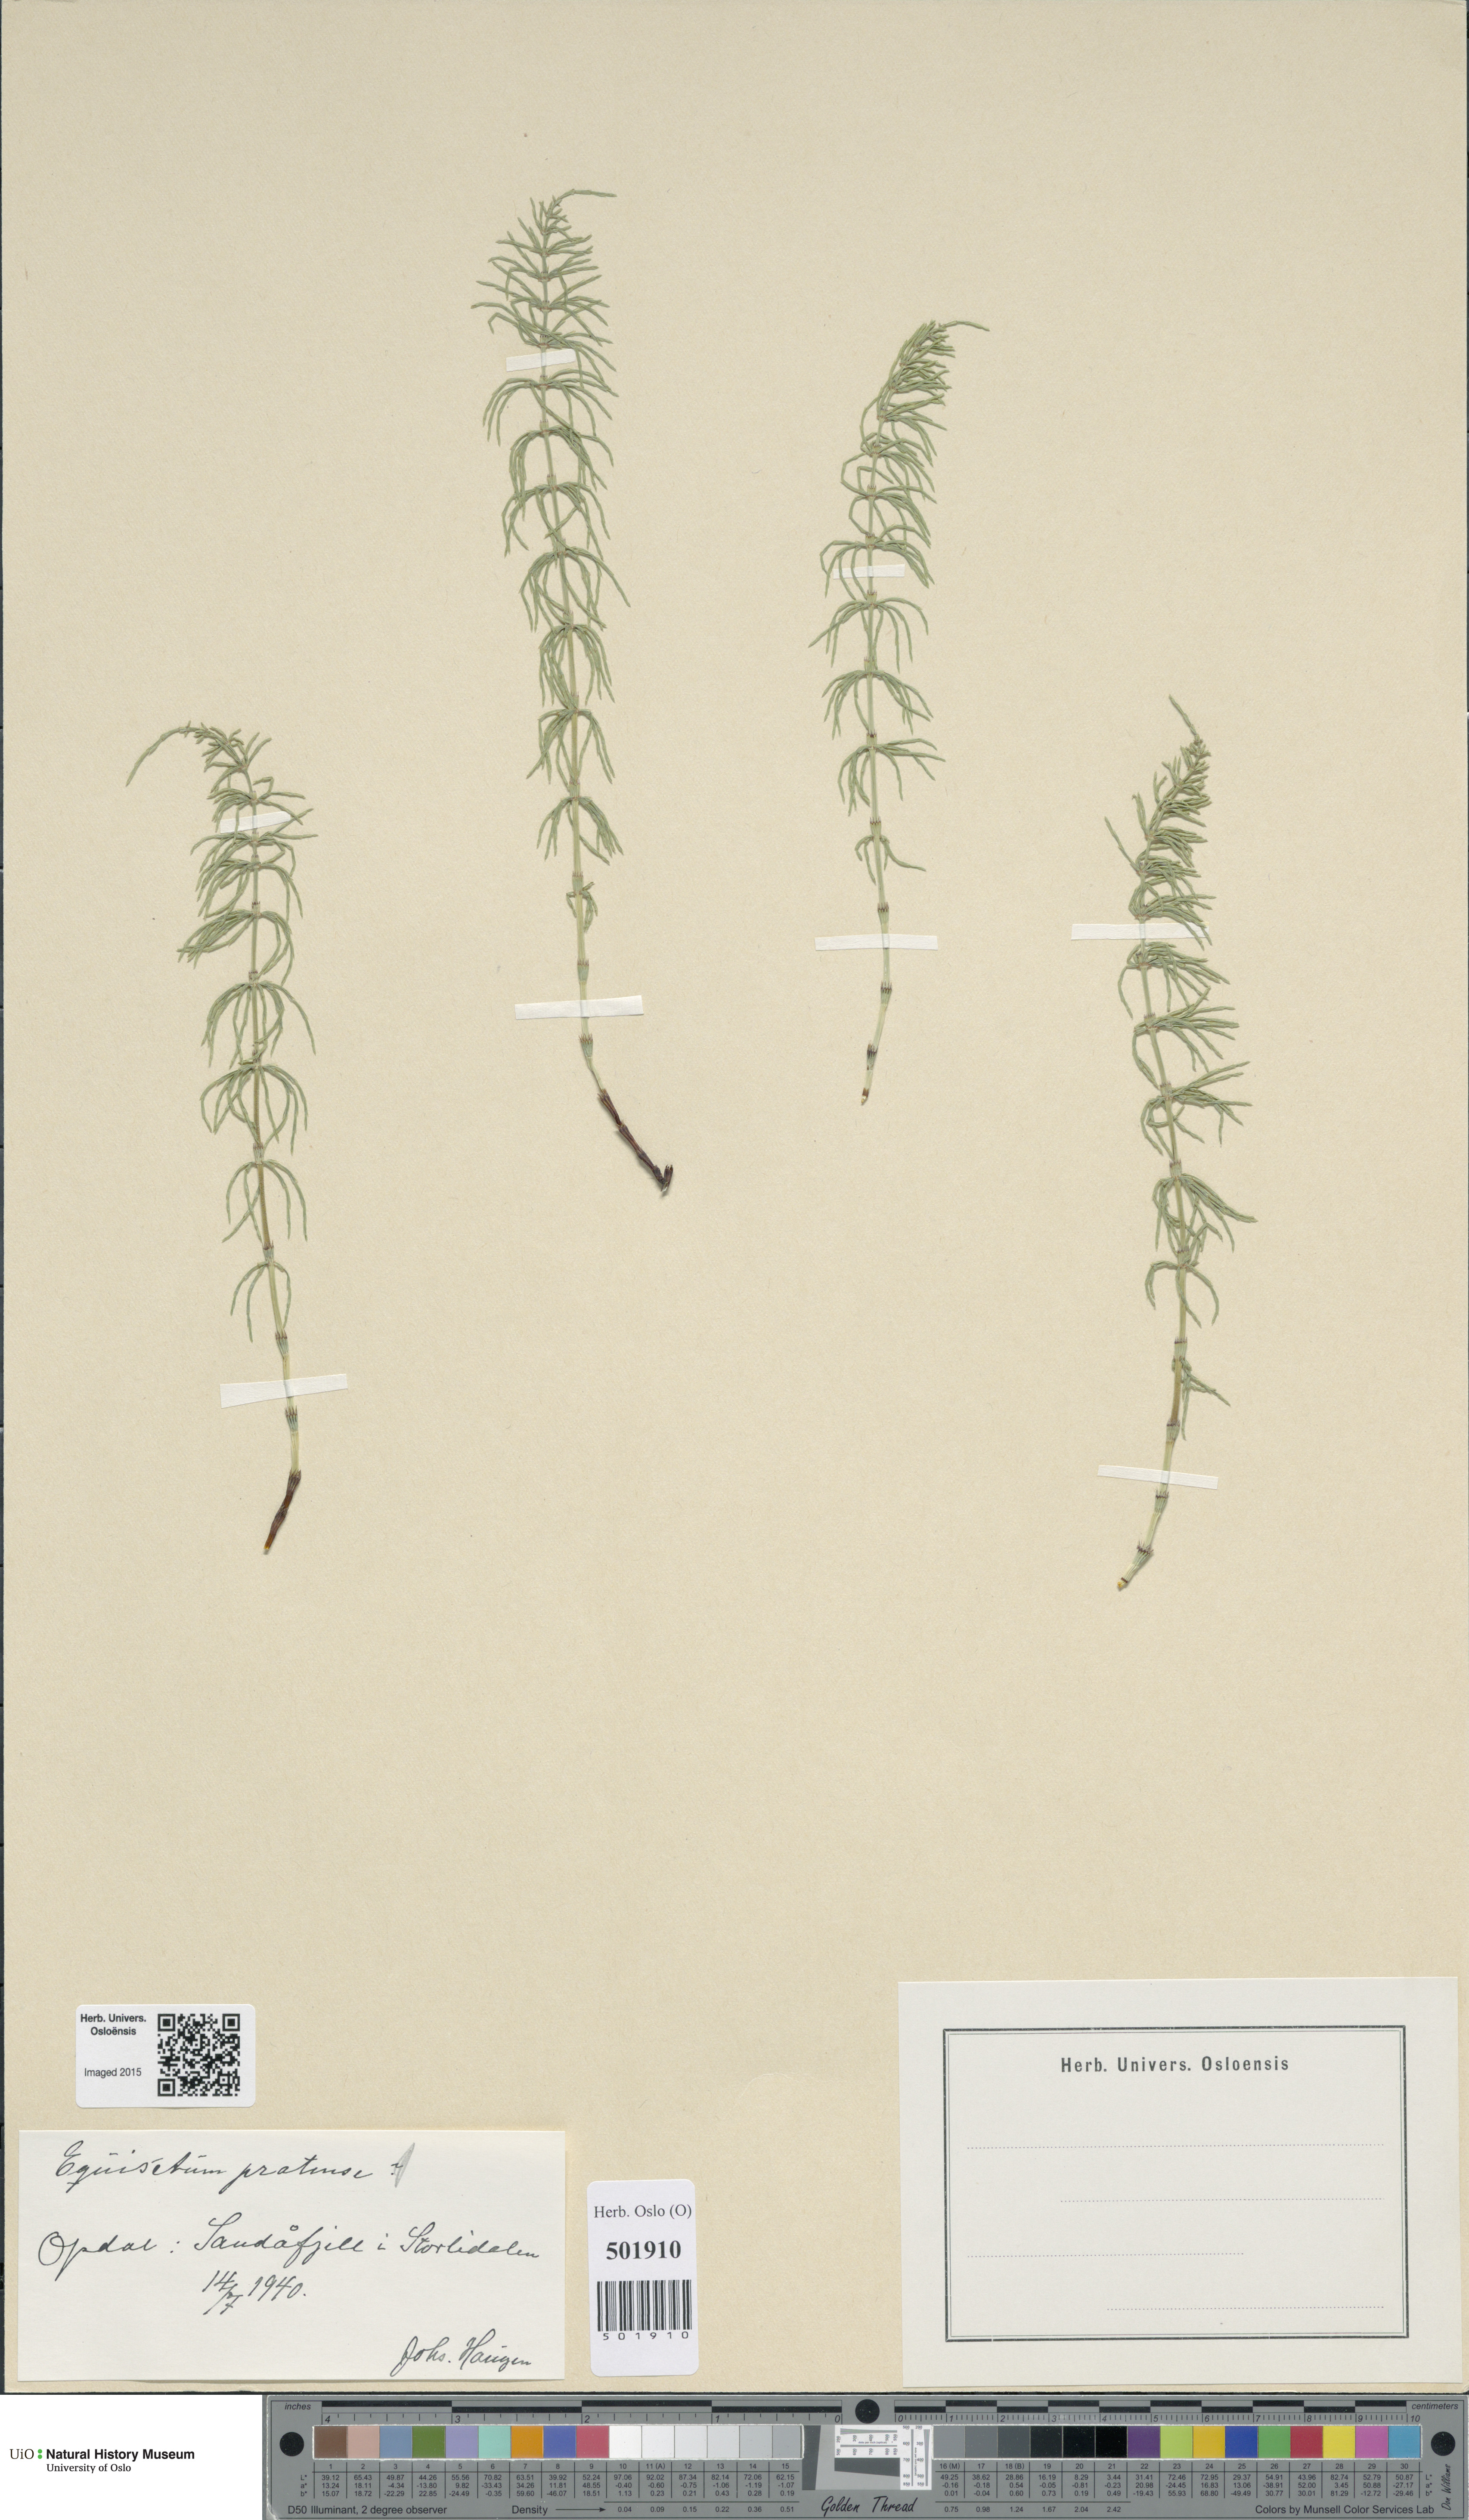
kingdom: Plantae
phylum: Tracheophyta
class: Polypodiopsida
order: Equisetales
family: Equisetaceae
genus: Equisetum
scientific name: Equisetum pratense
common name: Meadow horsetail
